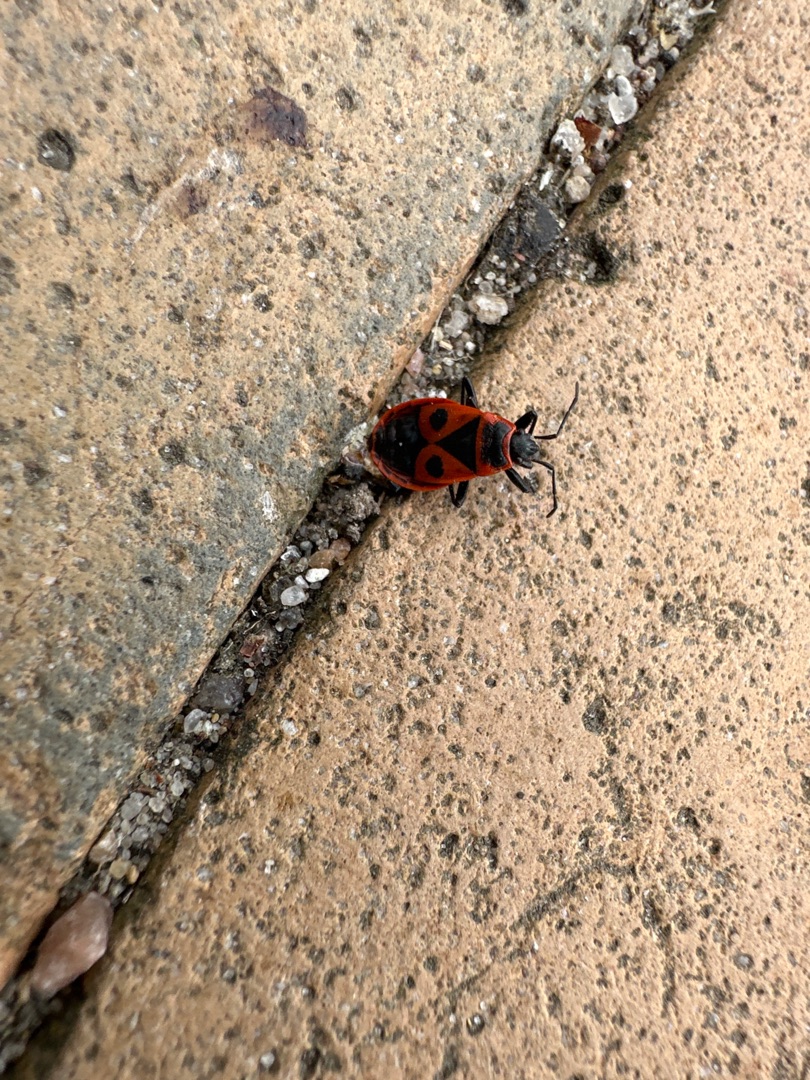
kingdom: Animalia
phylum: Arthropoda
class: Insecta
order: Hemiptera
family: Pyrrhocoridae
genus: Pyrrhocoris
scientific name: Pyrrhocoris apterus
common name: Ildtæge
